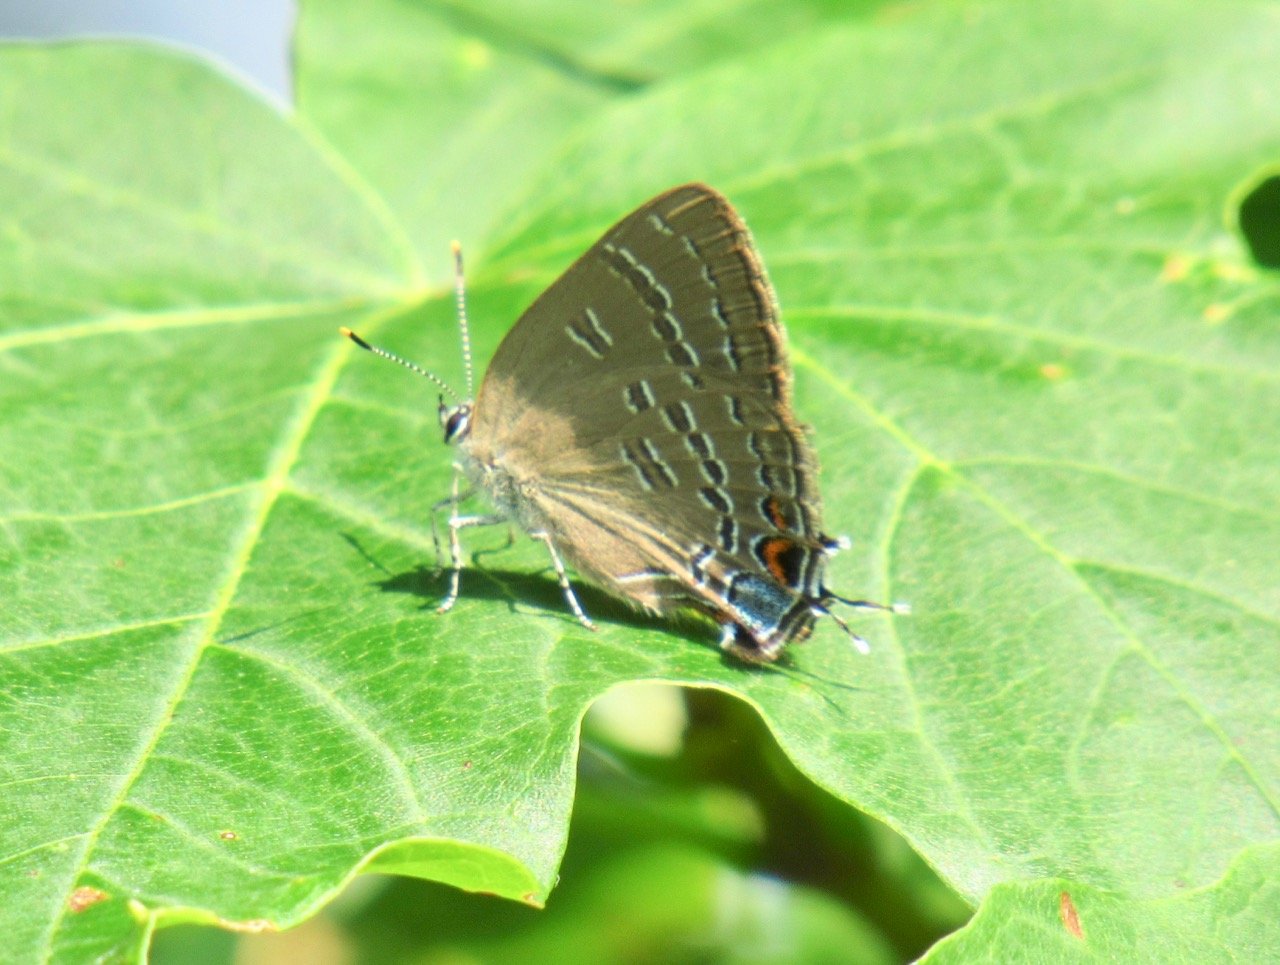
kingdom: Animalia
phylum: Arthropoda
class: Insecta
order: Lepidoptera
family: Lycaenidae
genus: Satyrium
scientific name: Satyrium calanus
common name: Banded Hairstreak
